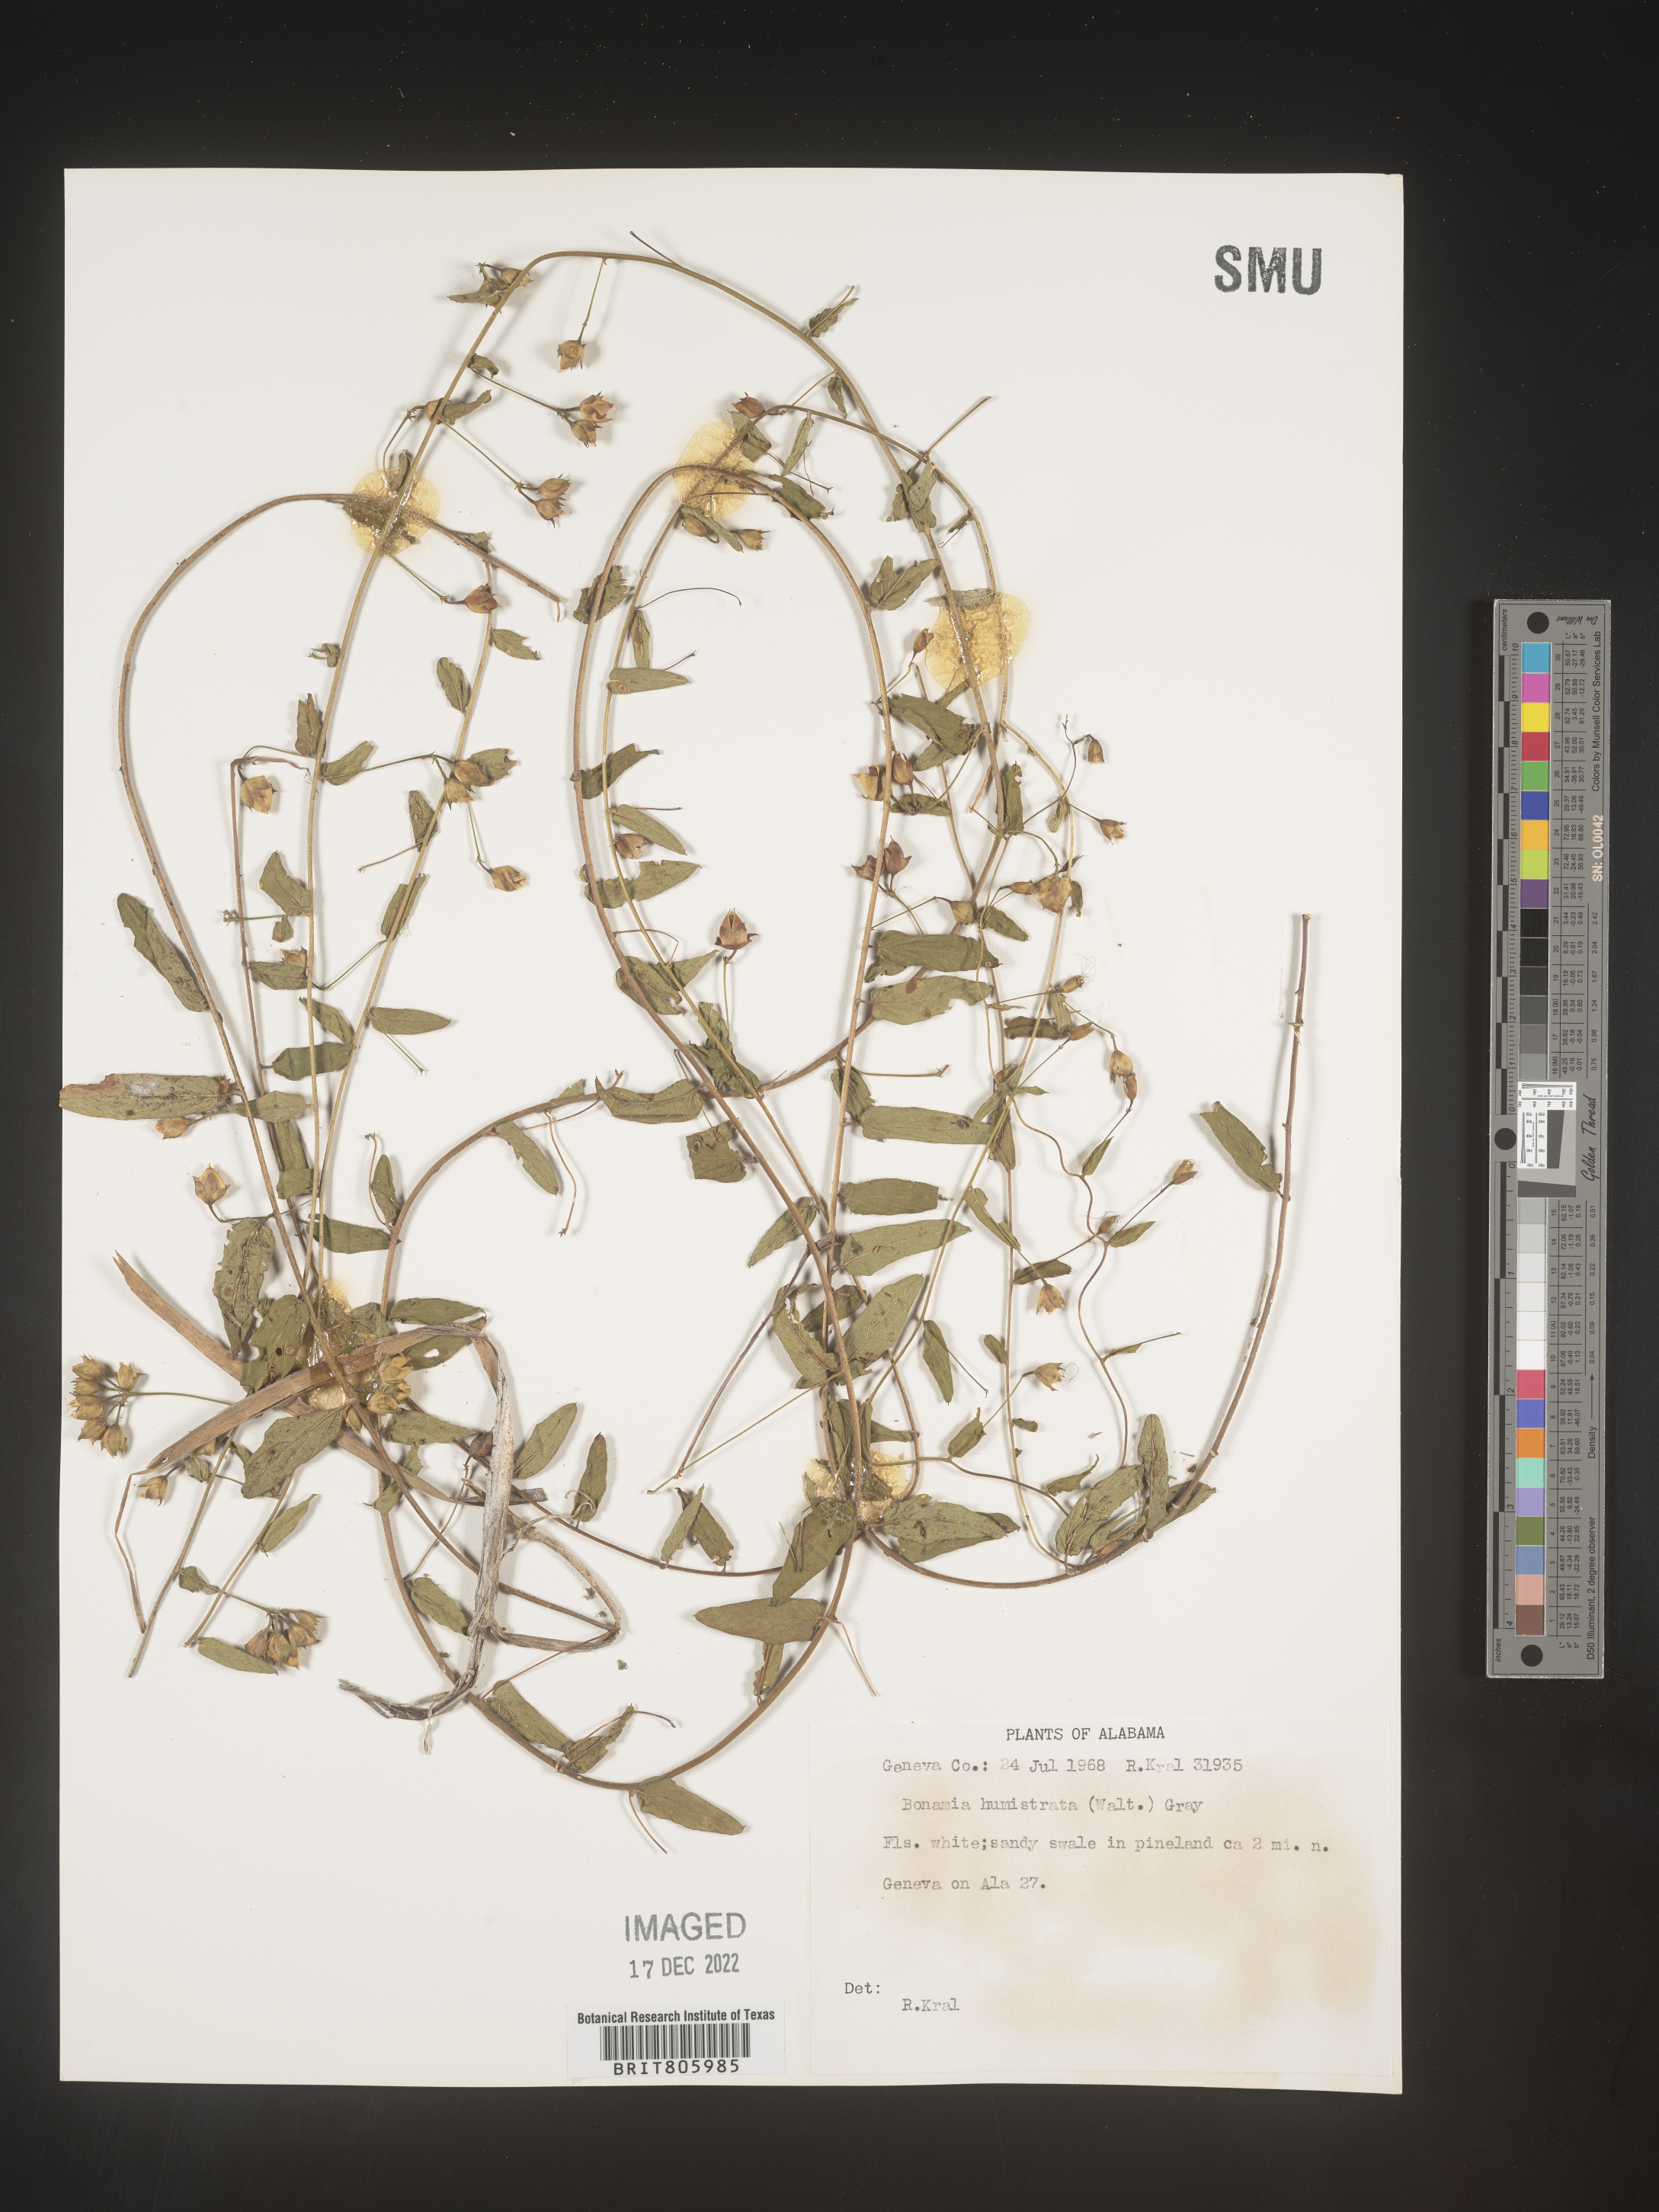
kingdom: Plantae
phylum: Tracheophyta
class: Magnoliopsida
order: Solanales
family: Convolvulaceae
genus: Stylisma
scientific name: Stylisma humistrata
